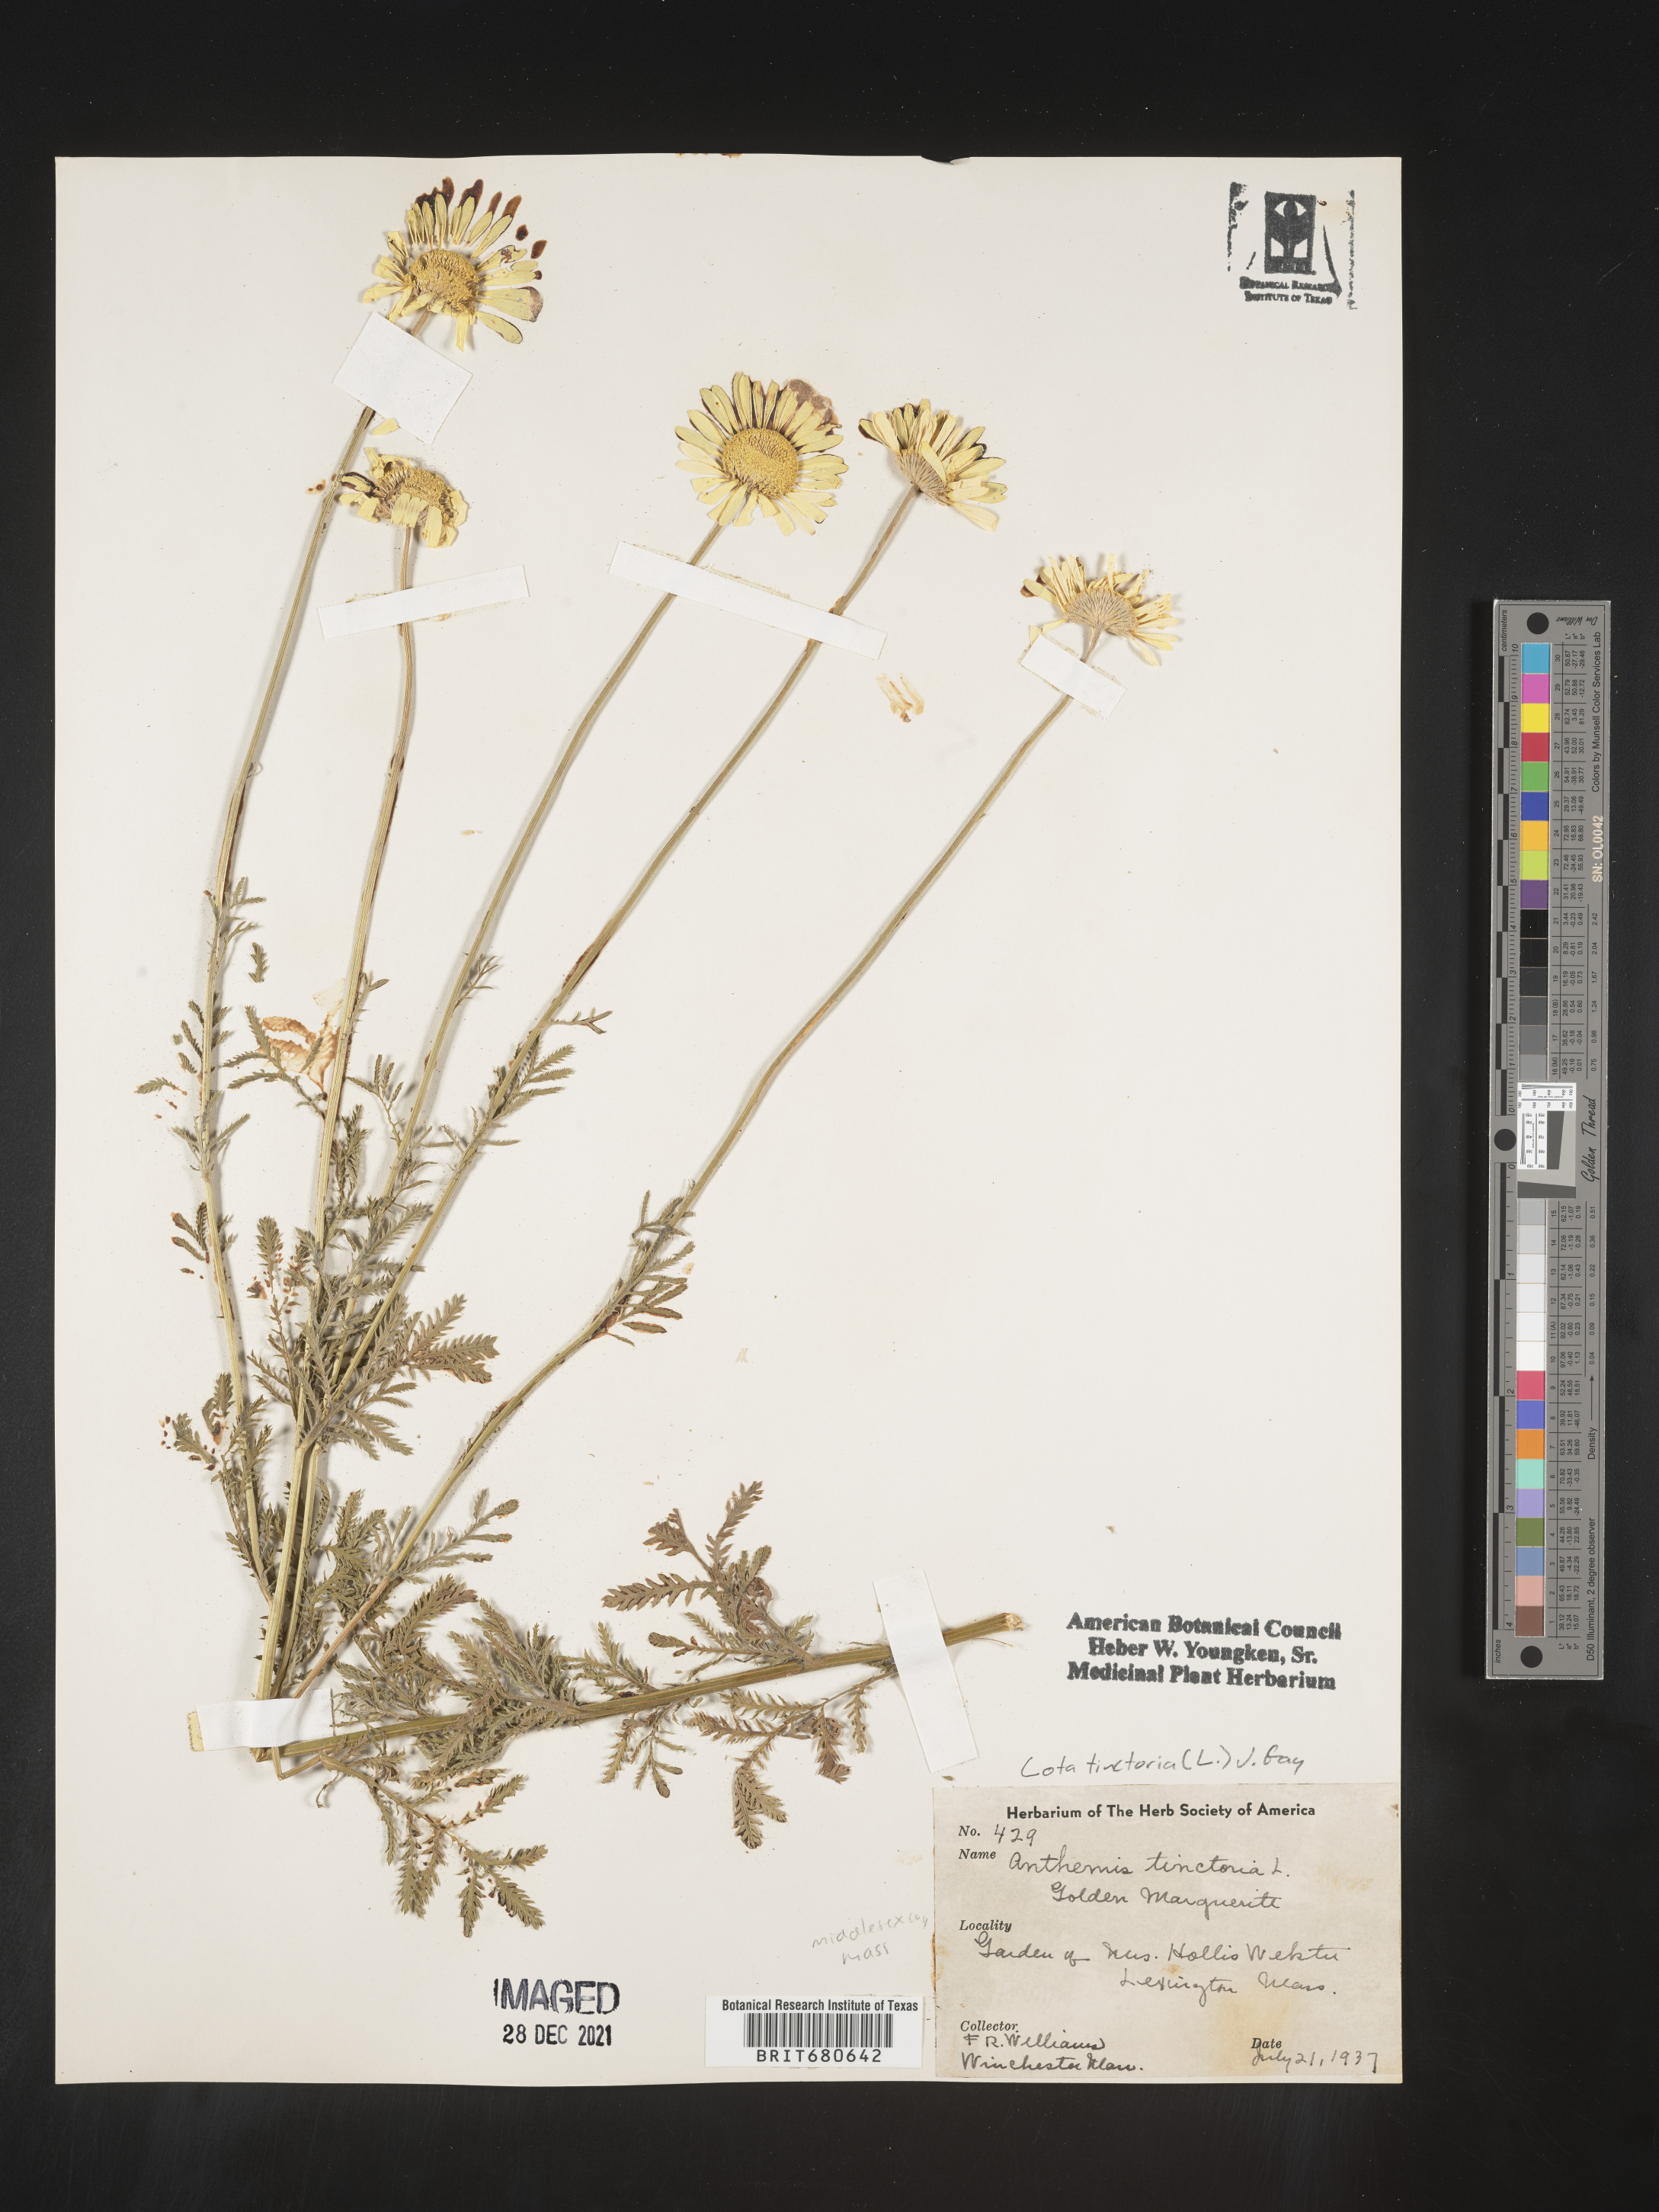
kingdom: Plantae
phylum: Tracheophyta
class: Magnoliopsida
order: Asterales
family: Asteraceae
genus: Anthemis
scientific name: Anthemis
